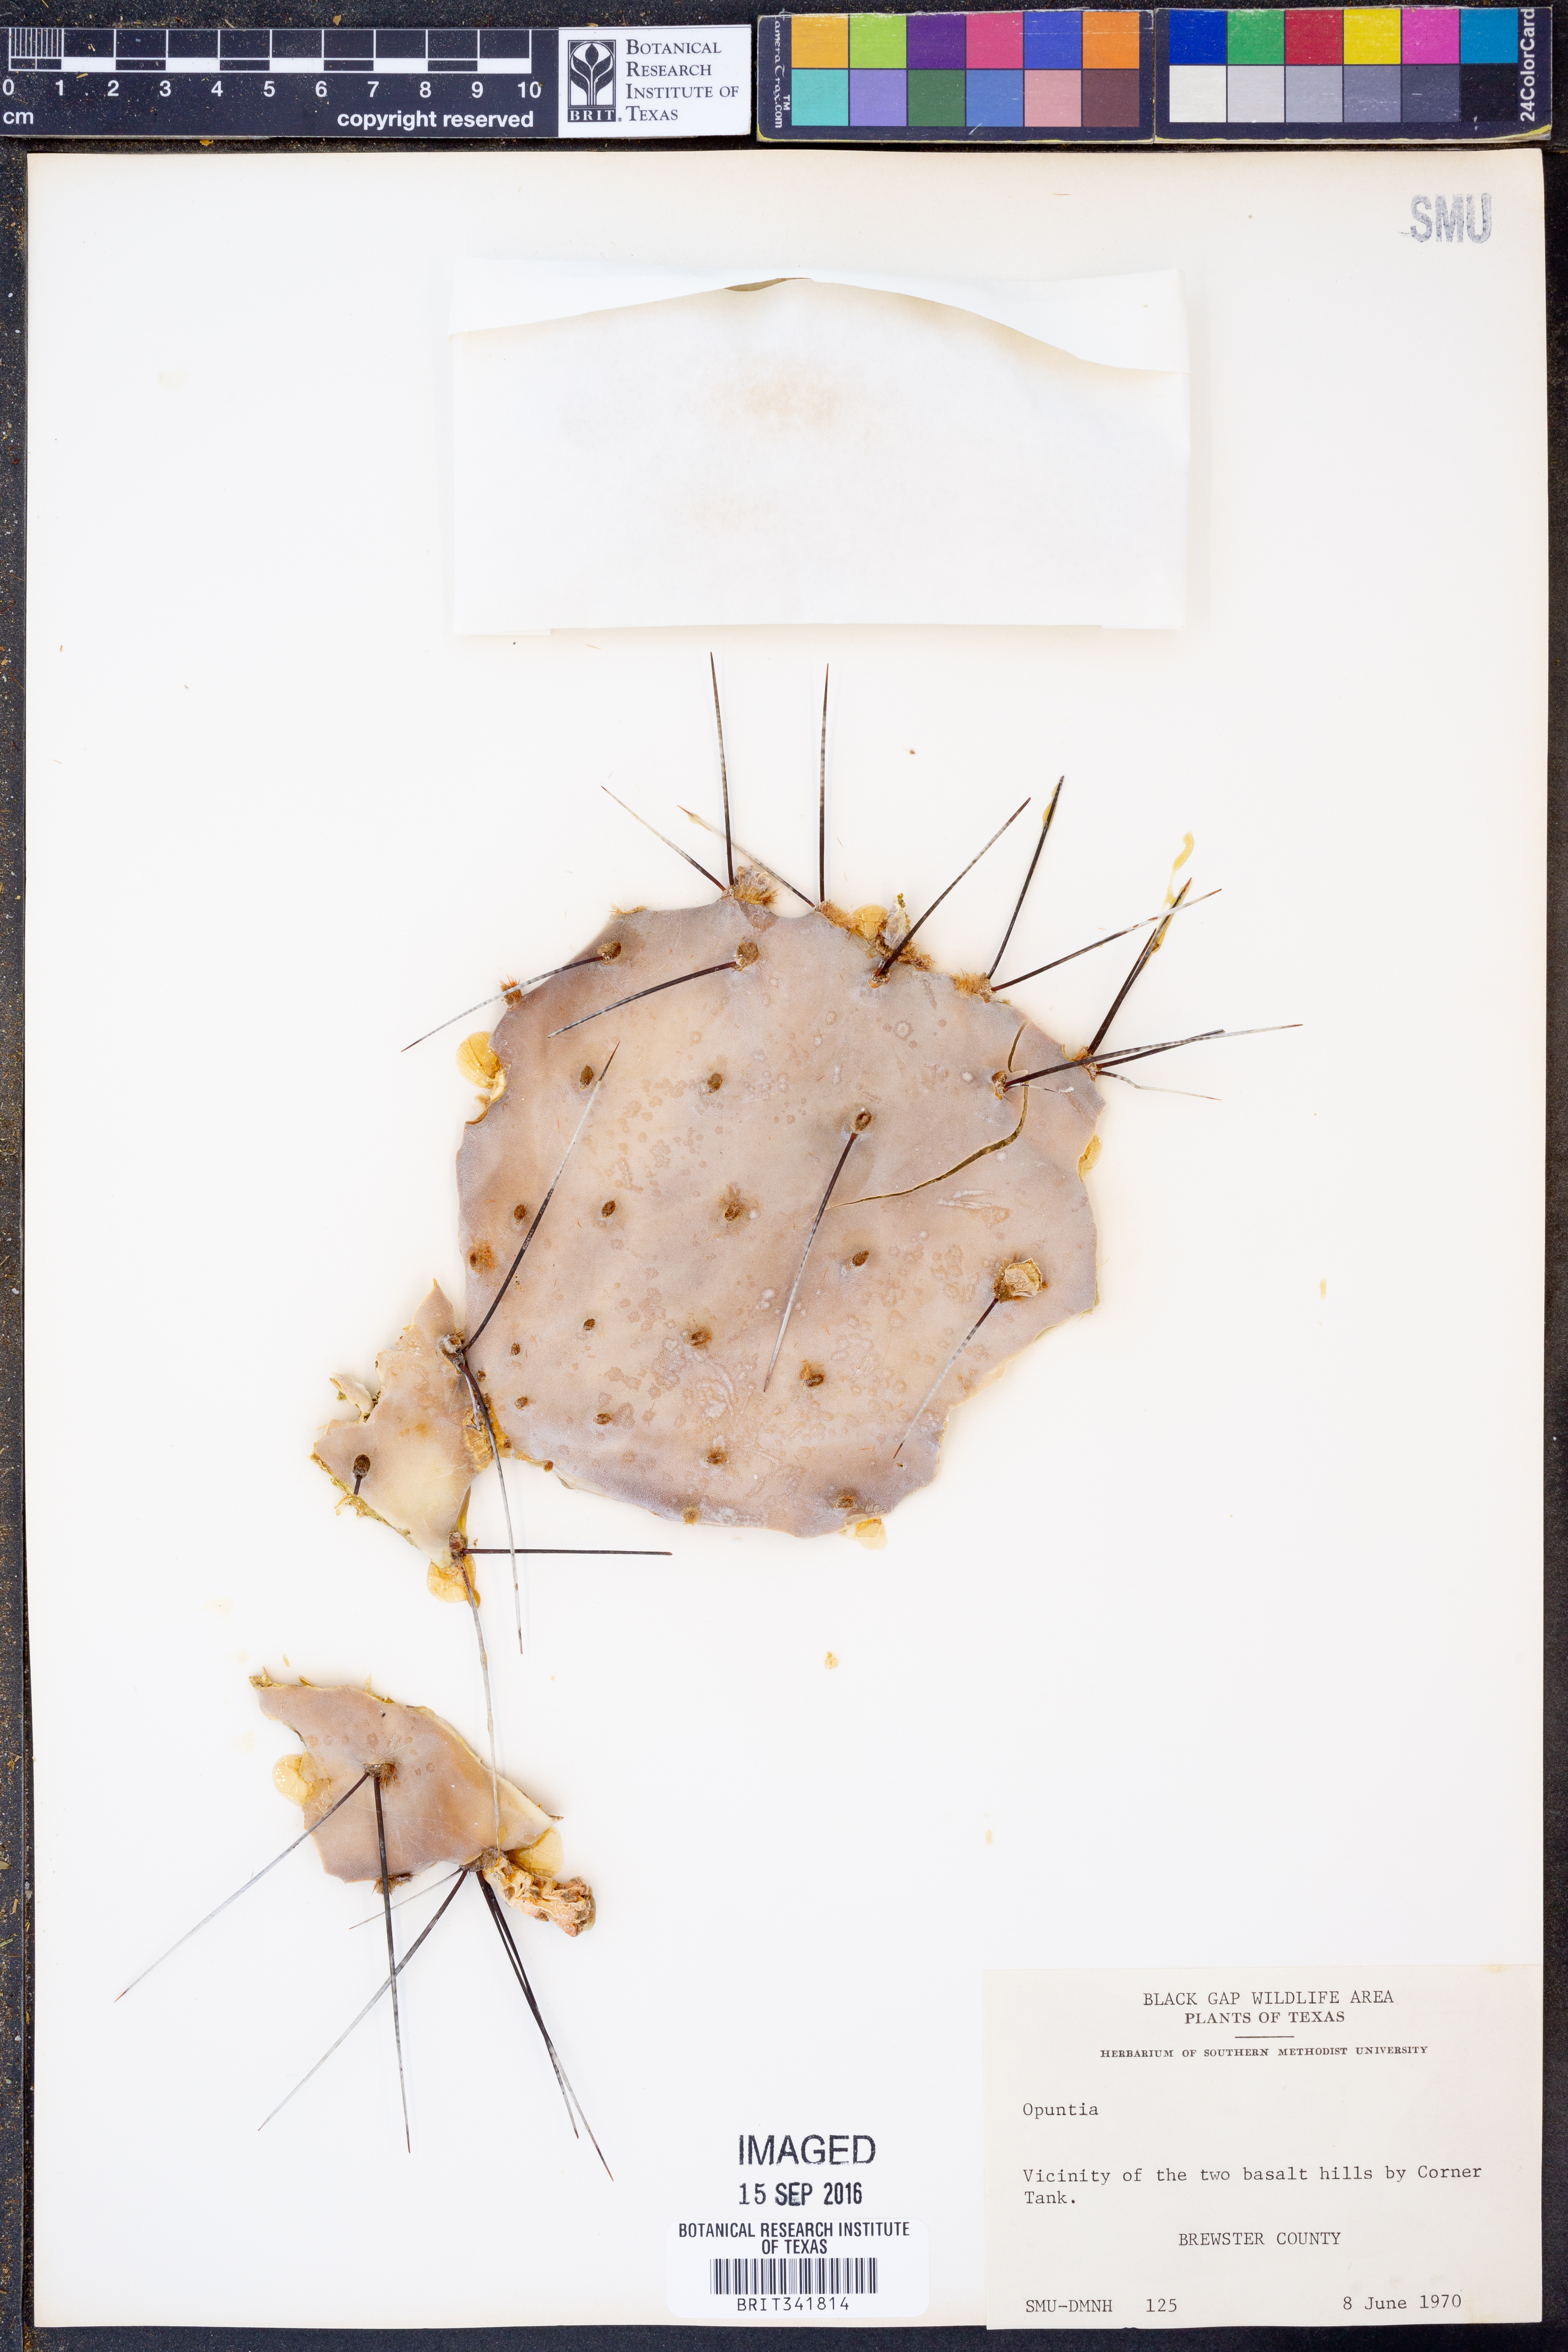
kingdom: Plantae
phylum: Tracheophyta
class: Magnoliopsida
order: Caryophyllales
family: Cactaceae
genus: Opuntia
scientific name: Opuntia macrocentra
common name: Purple prickly-pear
